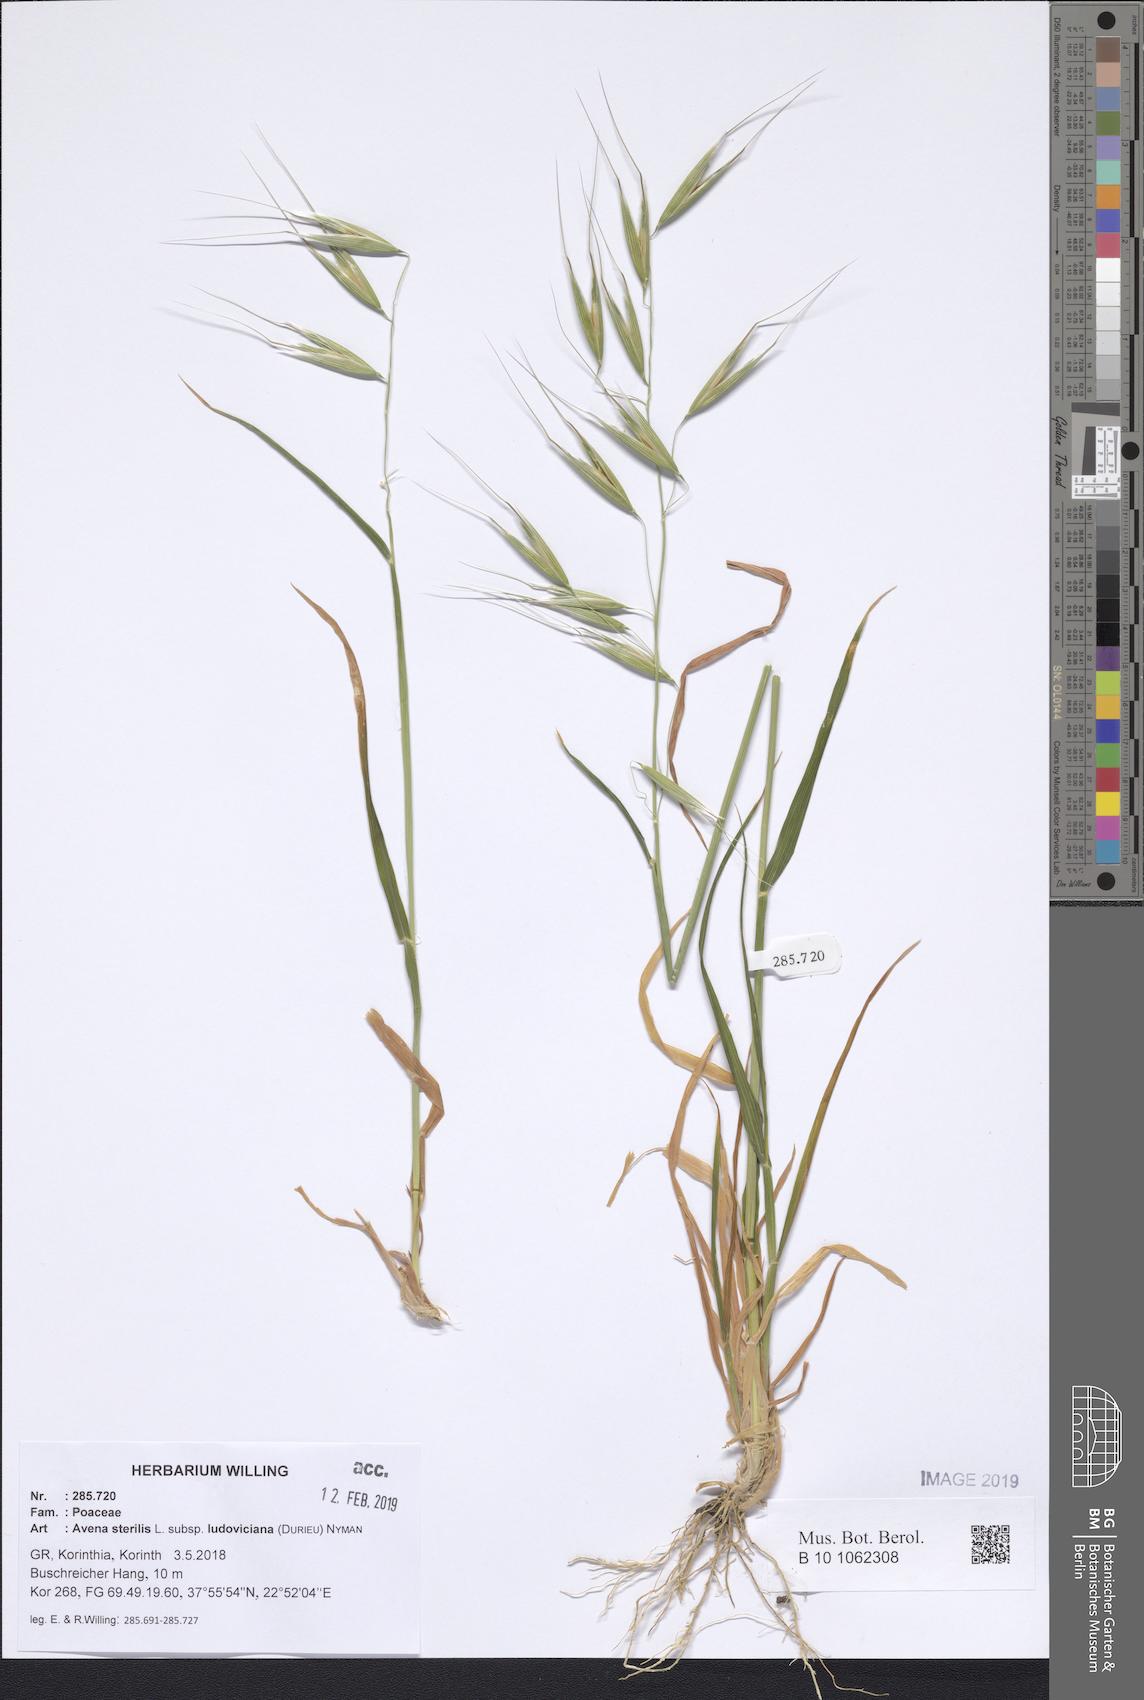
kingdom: Plantae
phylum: Tracheophyta
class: Liliopsida
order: Poales
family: Poaceae
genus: Avena
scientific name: Avena sterilis
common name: Animated oat
